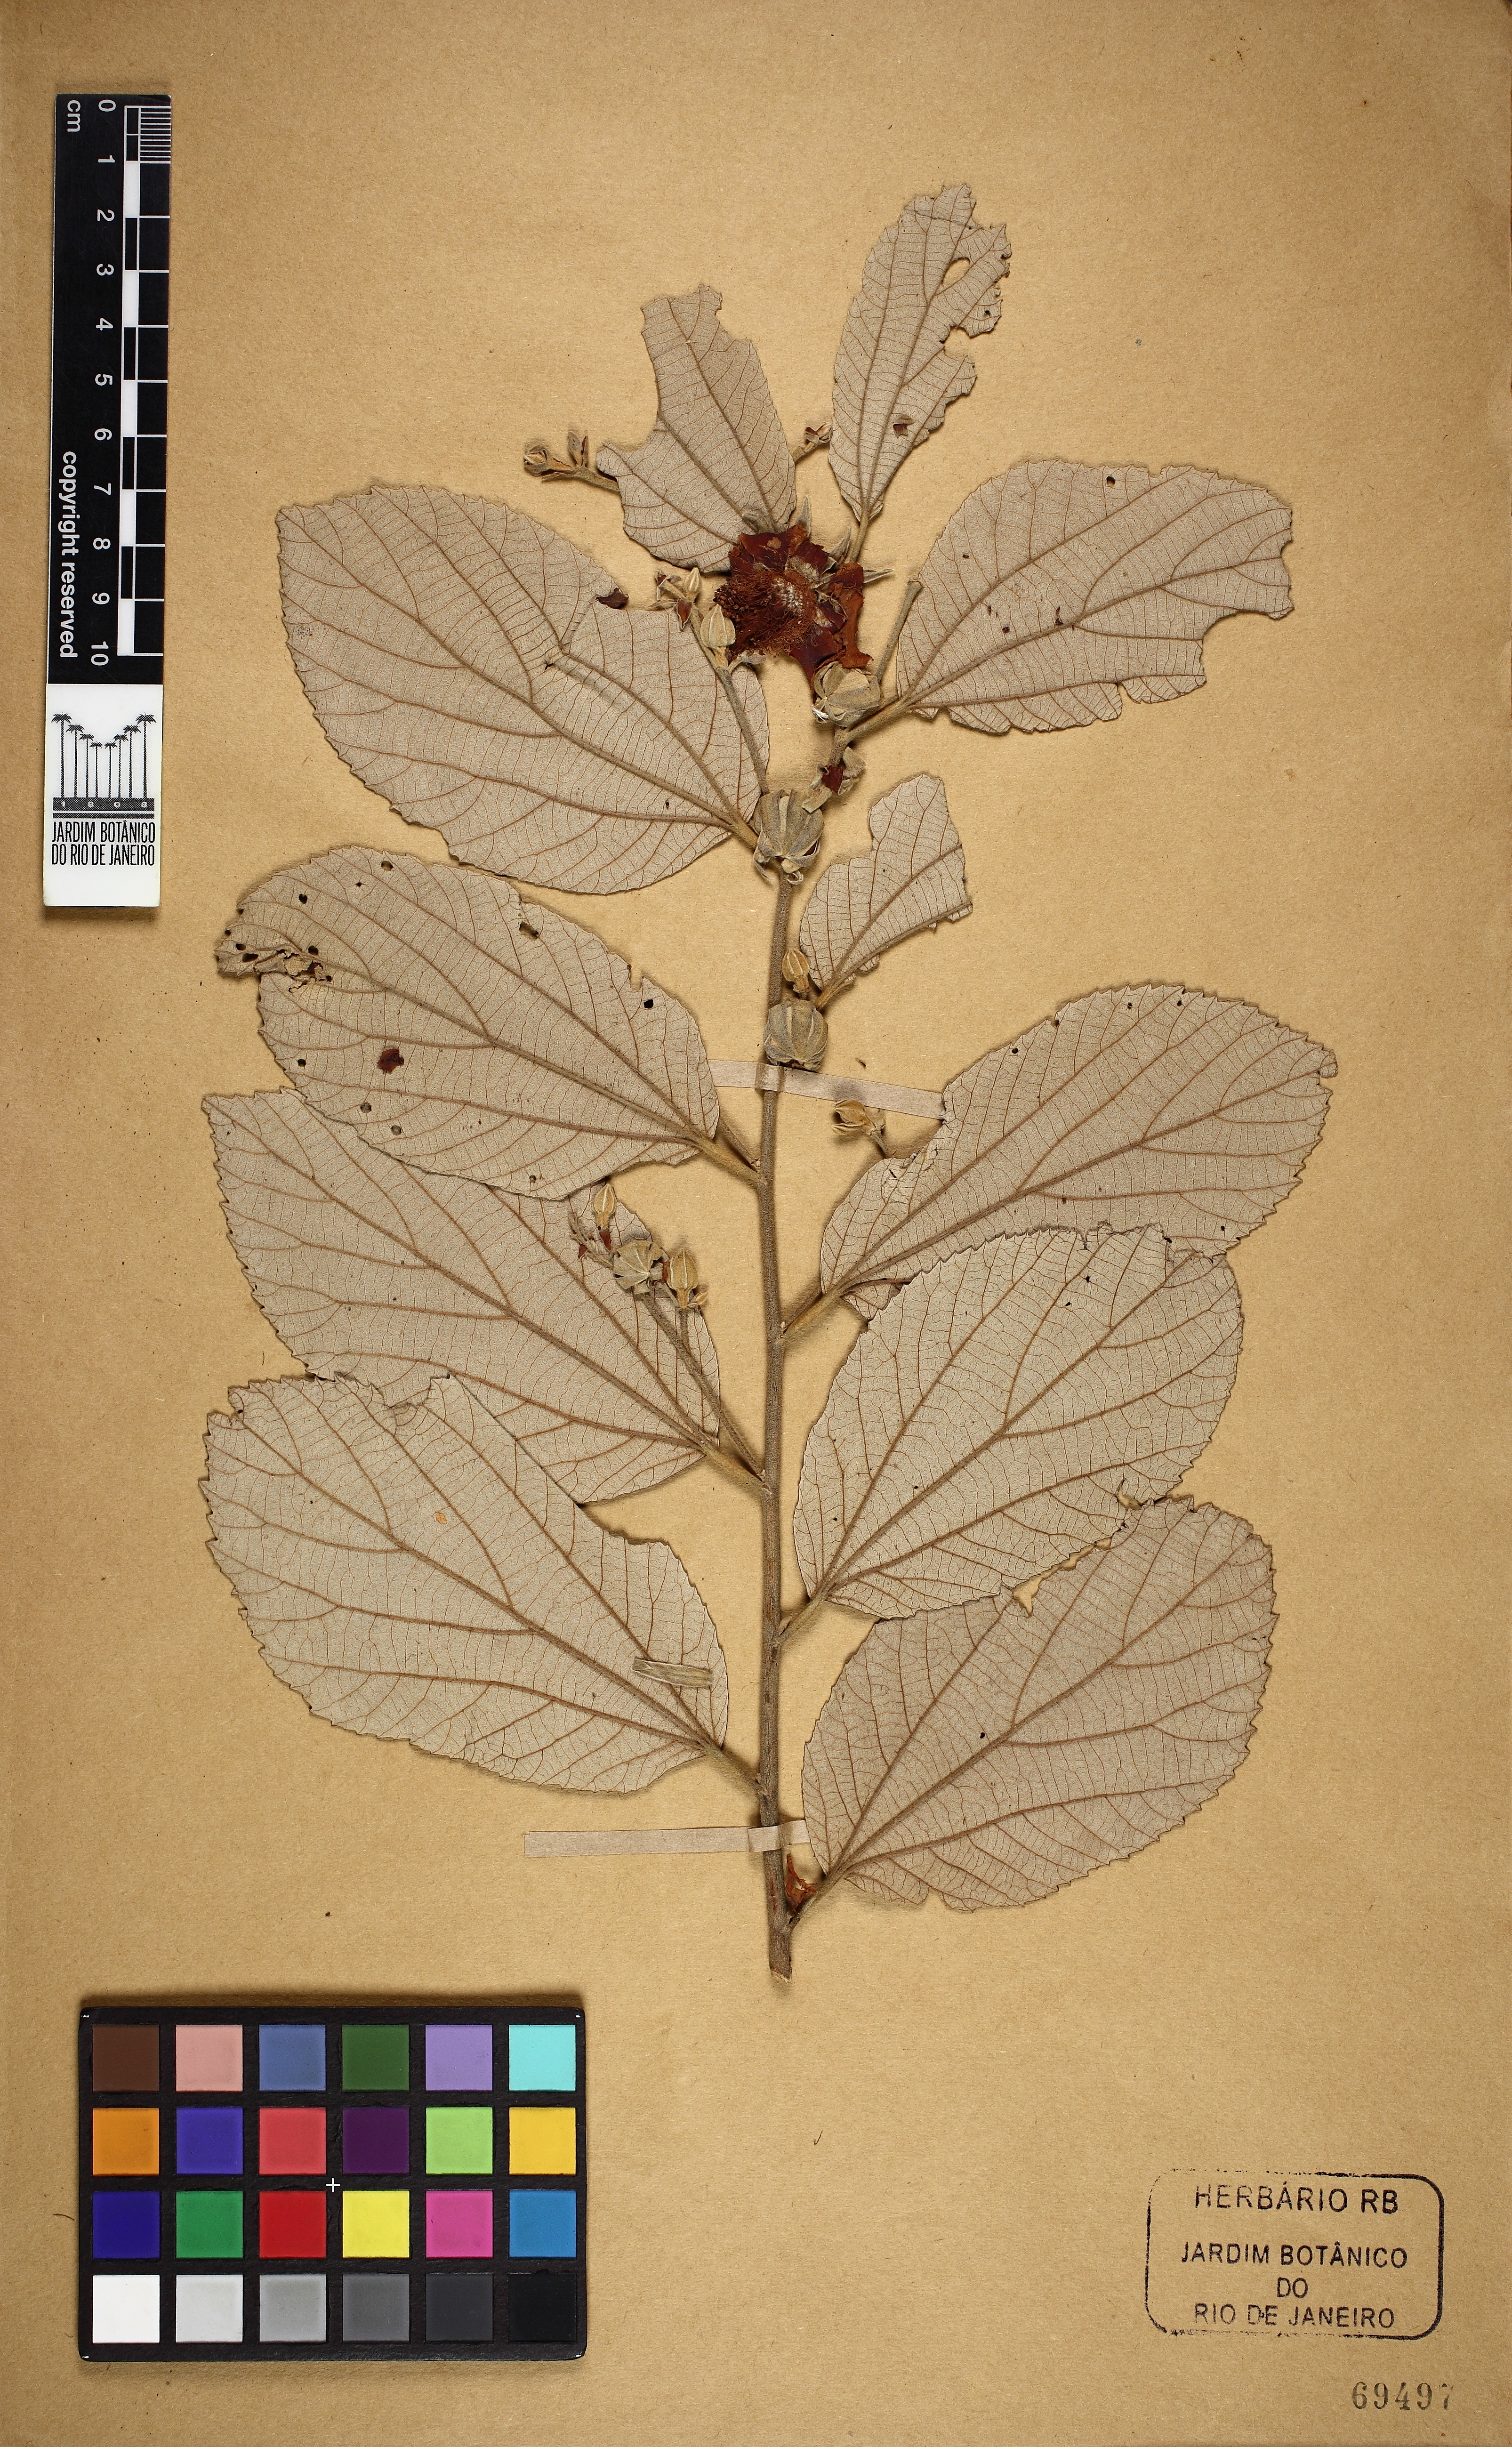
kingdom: Plantae
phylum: Tracheophyta
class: Magnoliopsida
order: Malvales
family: Malvaceae
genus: Luehea
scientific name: Luehea
